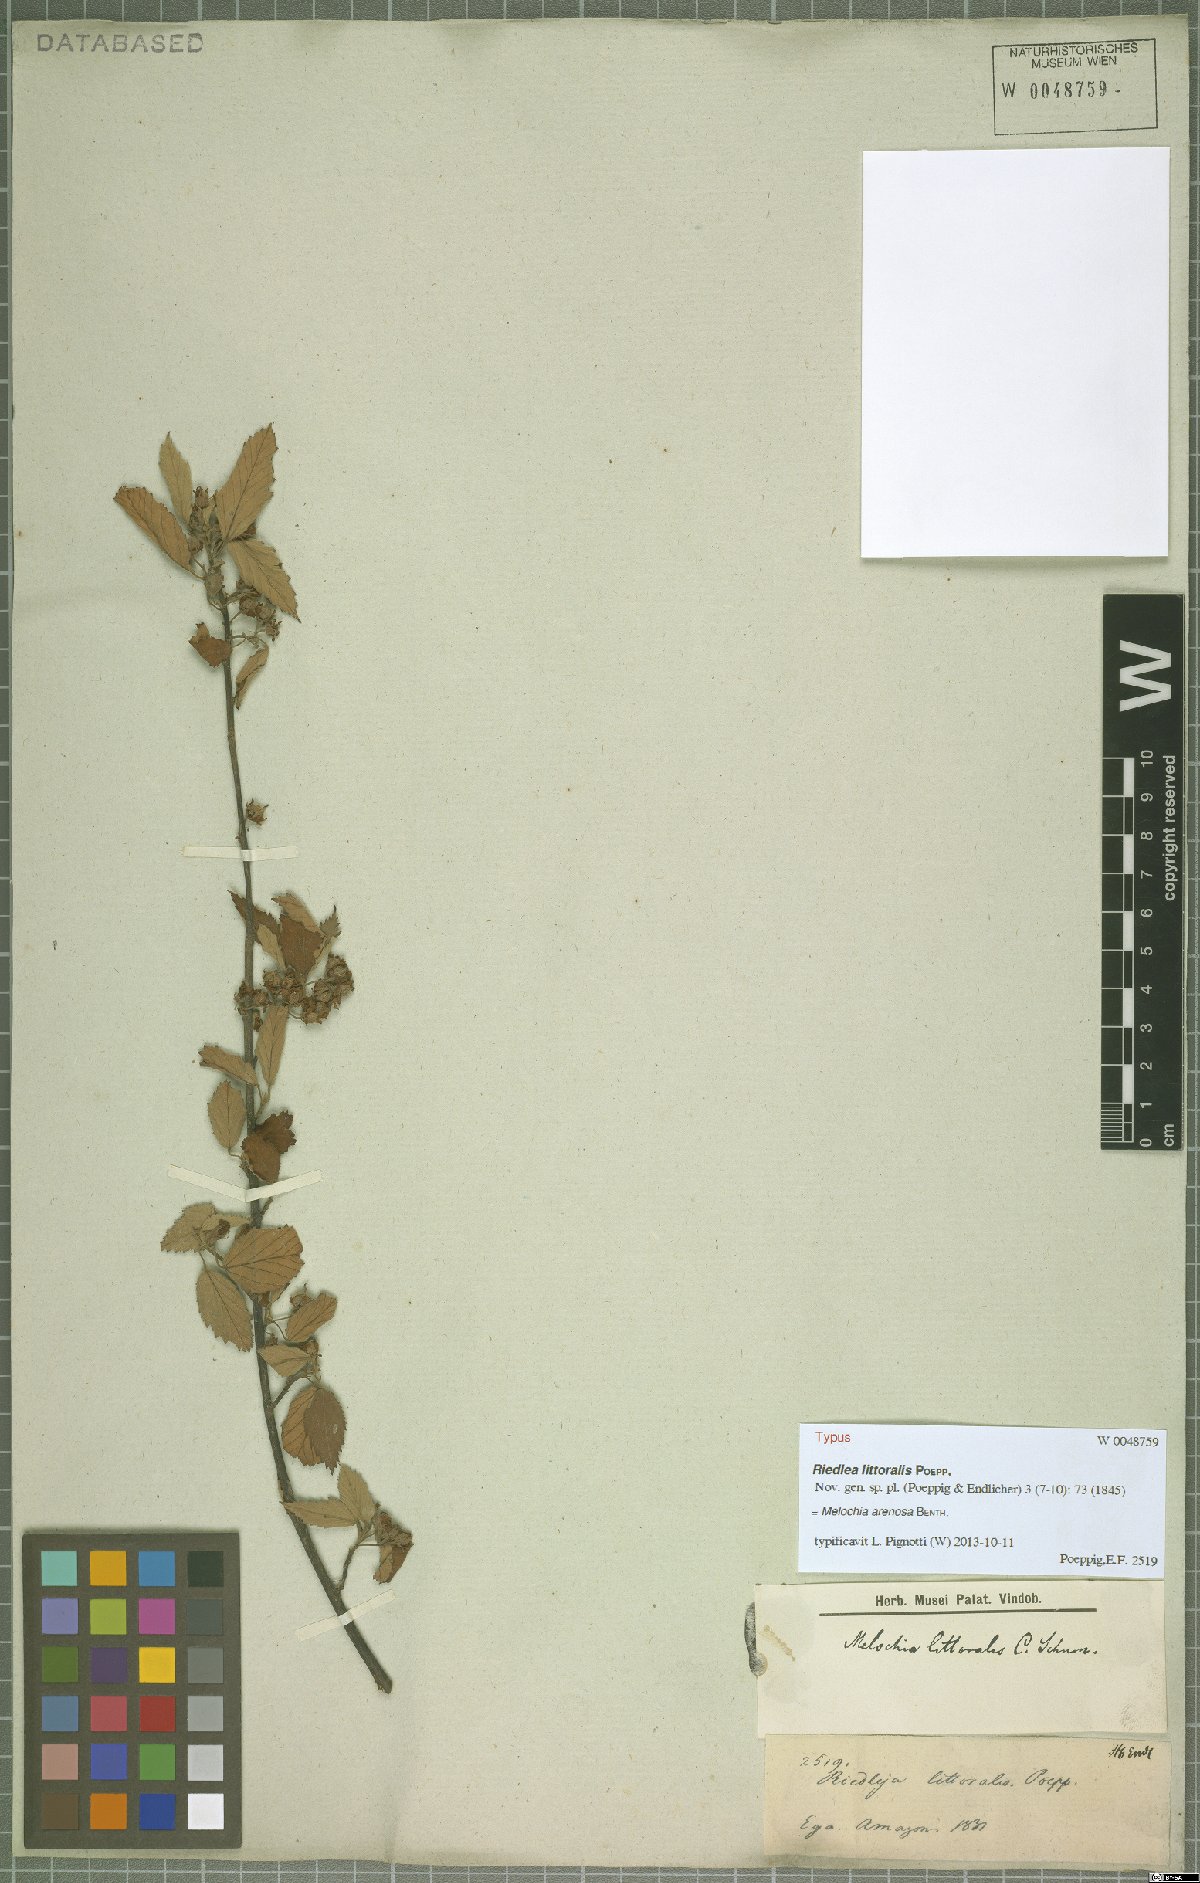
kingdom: Plantae
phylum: Tracheophyta
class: Magnoliopsida
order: Malvales
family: Malvaceae
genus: Melochia
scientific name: Melochia arenosa
